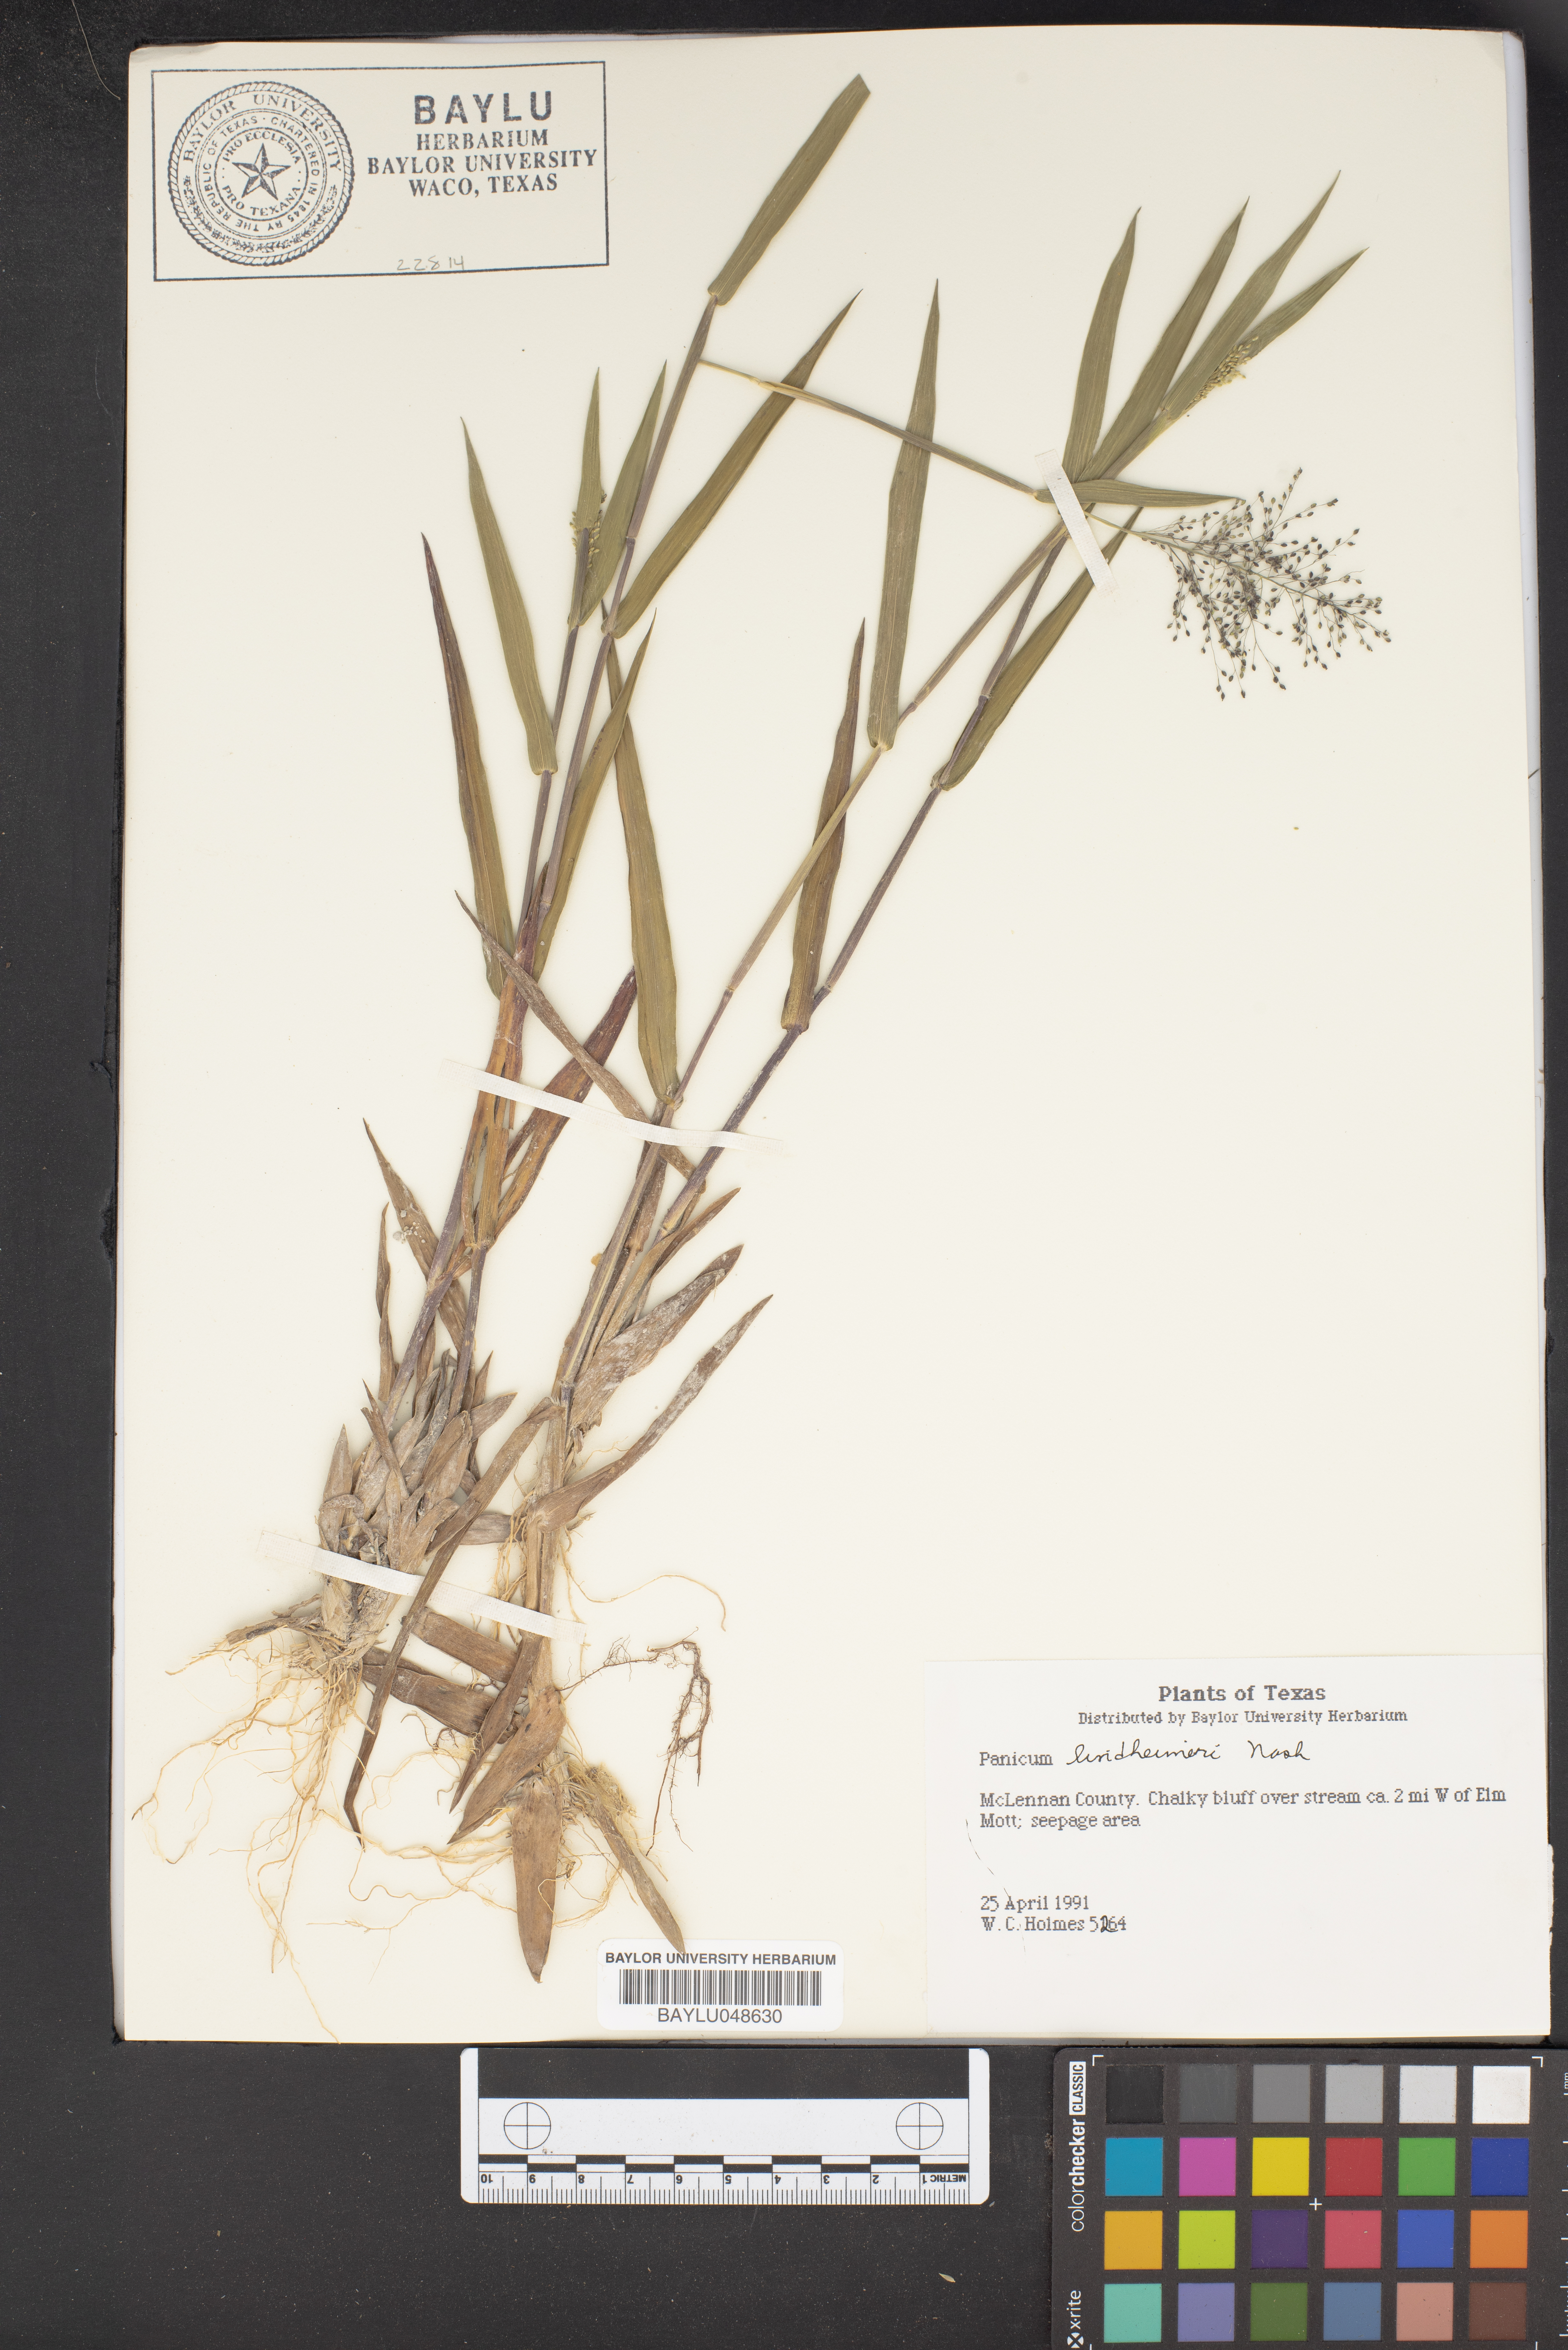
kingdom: Plantae
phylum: Tracheophyta
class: Liliopsida
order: Poales
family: Poaceae
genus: Dichanthelium
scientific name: Dichanthelium lindheimeri
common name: Lindheimer's panicgrass
